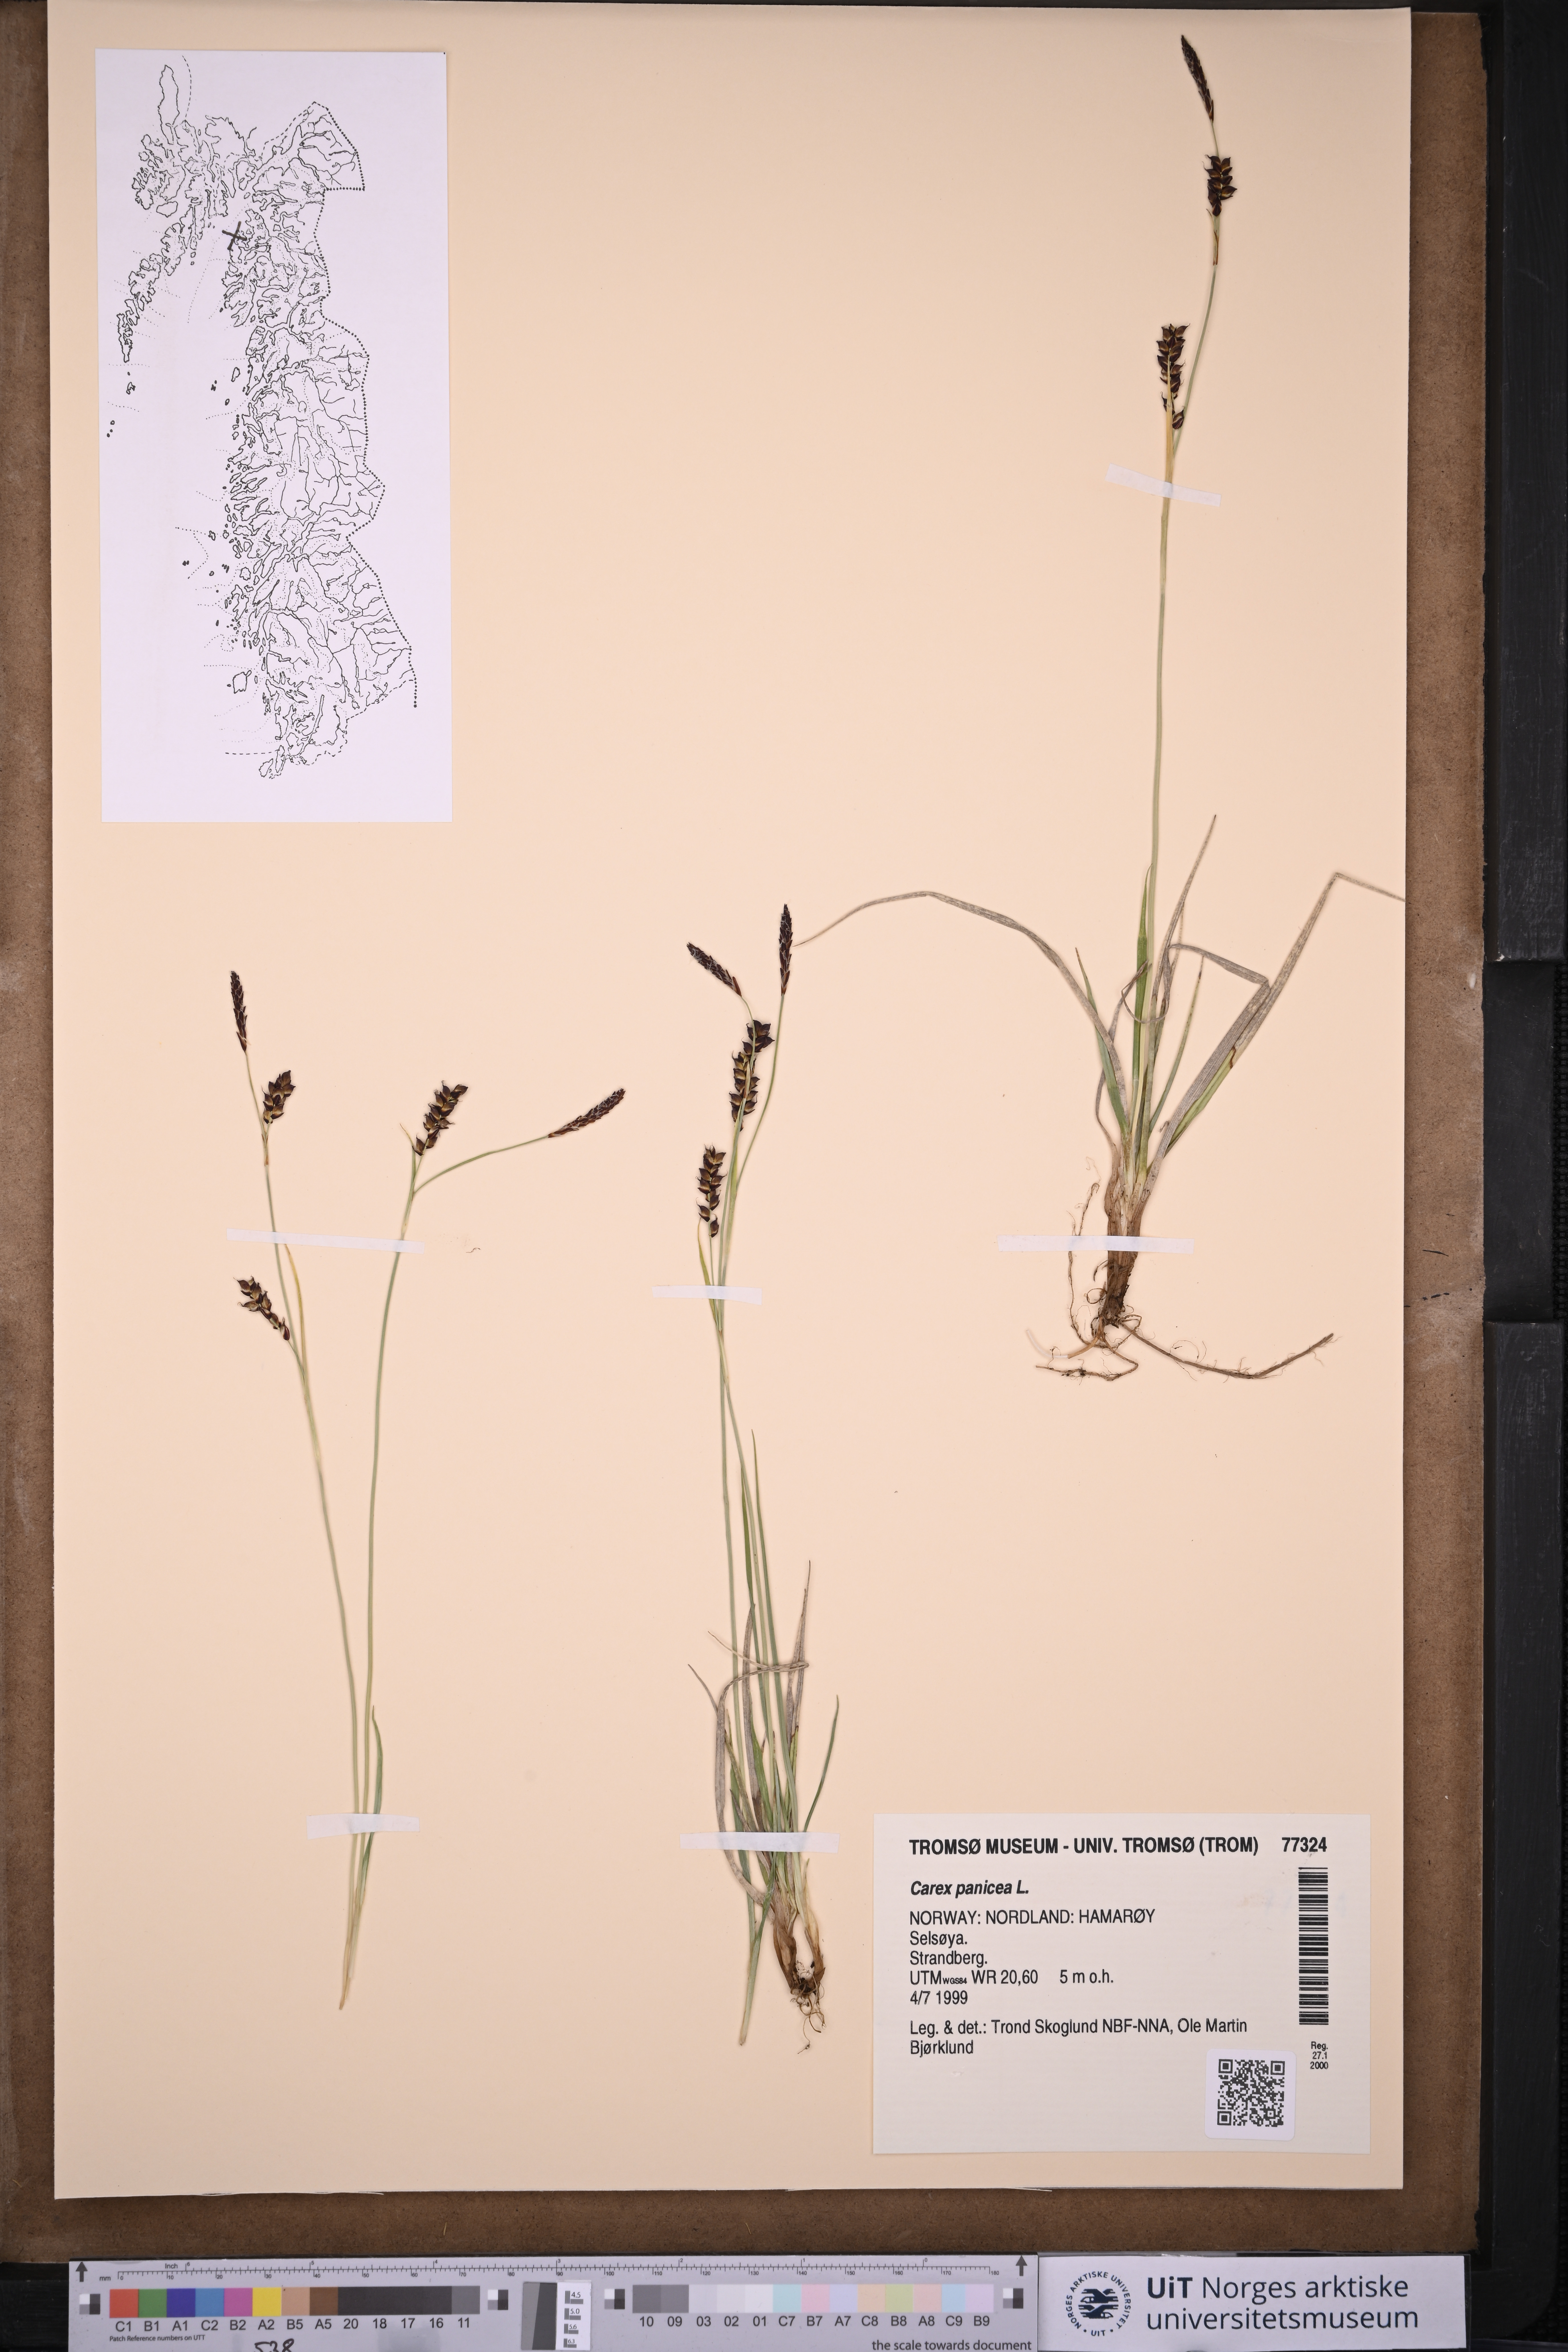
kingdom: Plantae
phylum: Tracheophyta
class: Liliopsida
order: Poales
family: Cyperaceae
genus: Carex
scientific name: Carex panicea
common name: Carnation sedge
